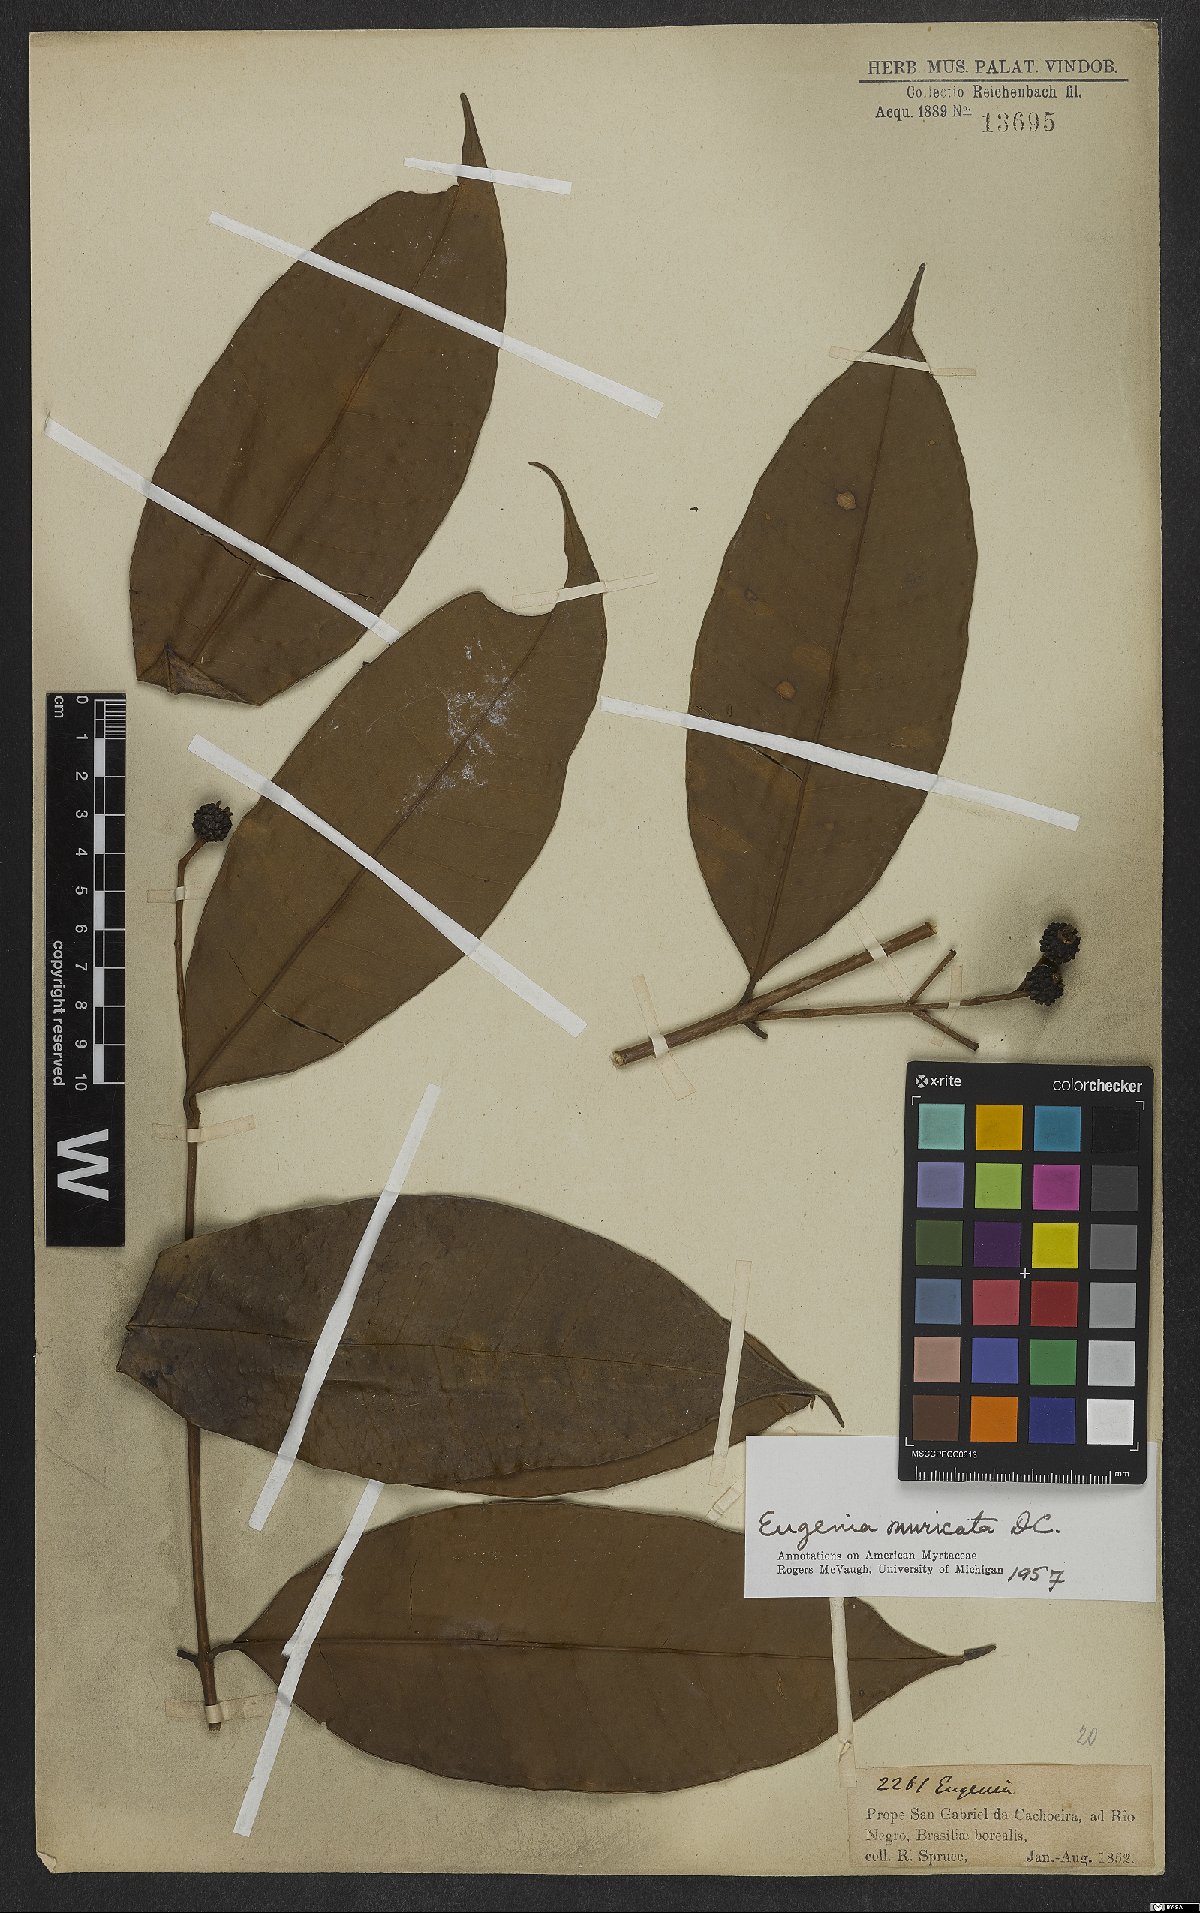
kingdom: Plantae
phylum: Tracheophyta
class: Magnoliopsida
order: Myrtales
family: Myrtaceae
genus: Eugenia
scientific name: Eugenia muricata
